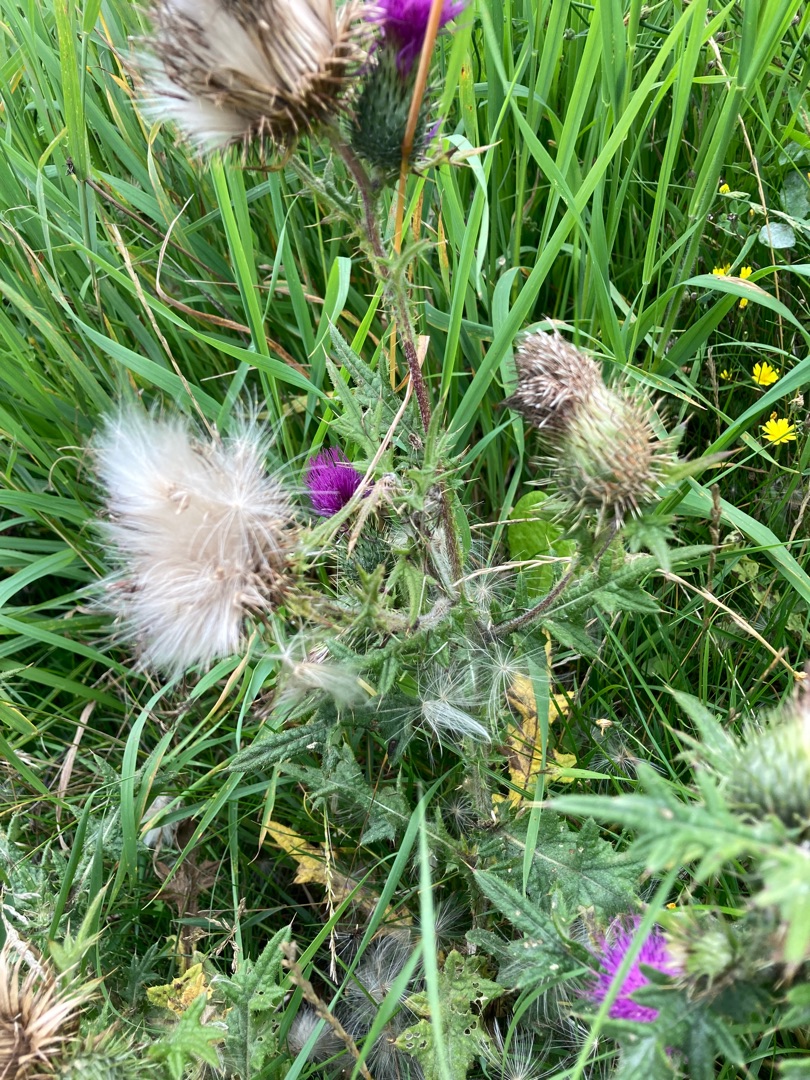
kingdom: Plantae
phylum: Tracheophyta
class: Magnoliopsida
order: Asterales
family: Asteraceae
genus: Cirsium
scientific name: Cirsium vulgare
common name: Horse-tidsel
